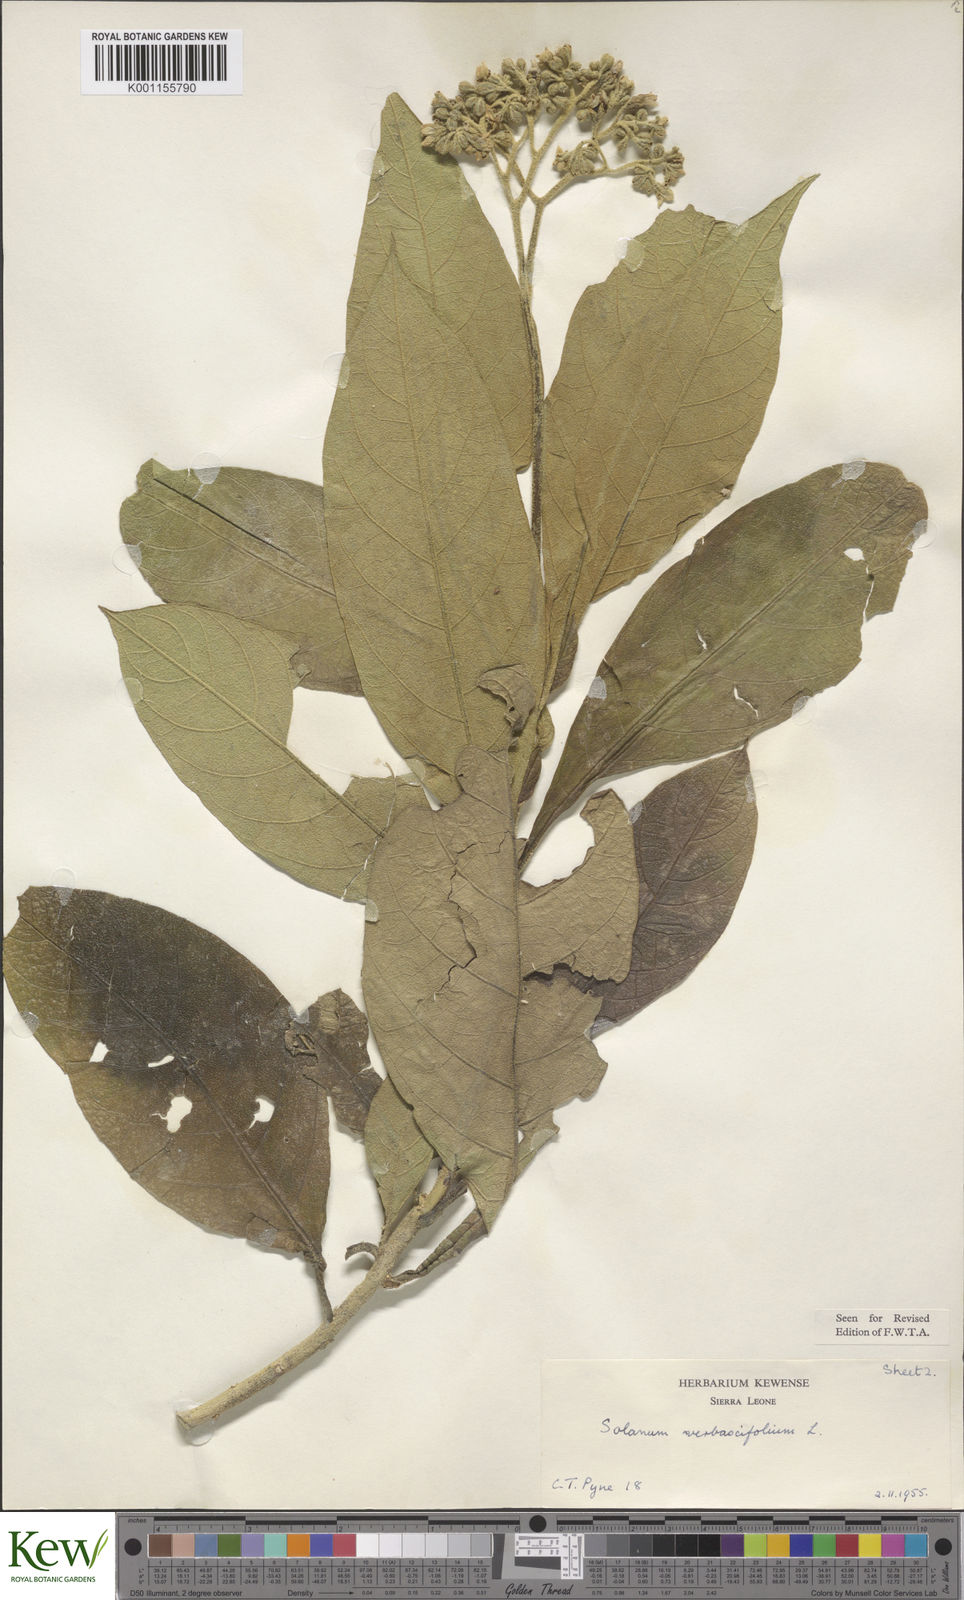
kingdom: Plantae
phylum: Tracheophyta
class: Magnoliopsida
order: Solanales
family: Solanaceae
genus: Solanum
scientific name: Solanum rugosum
